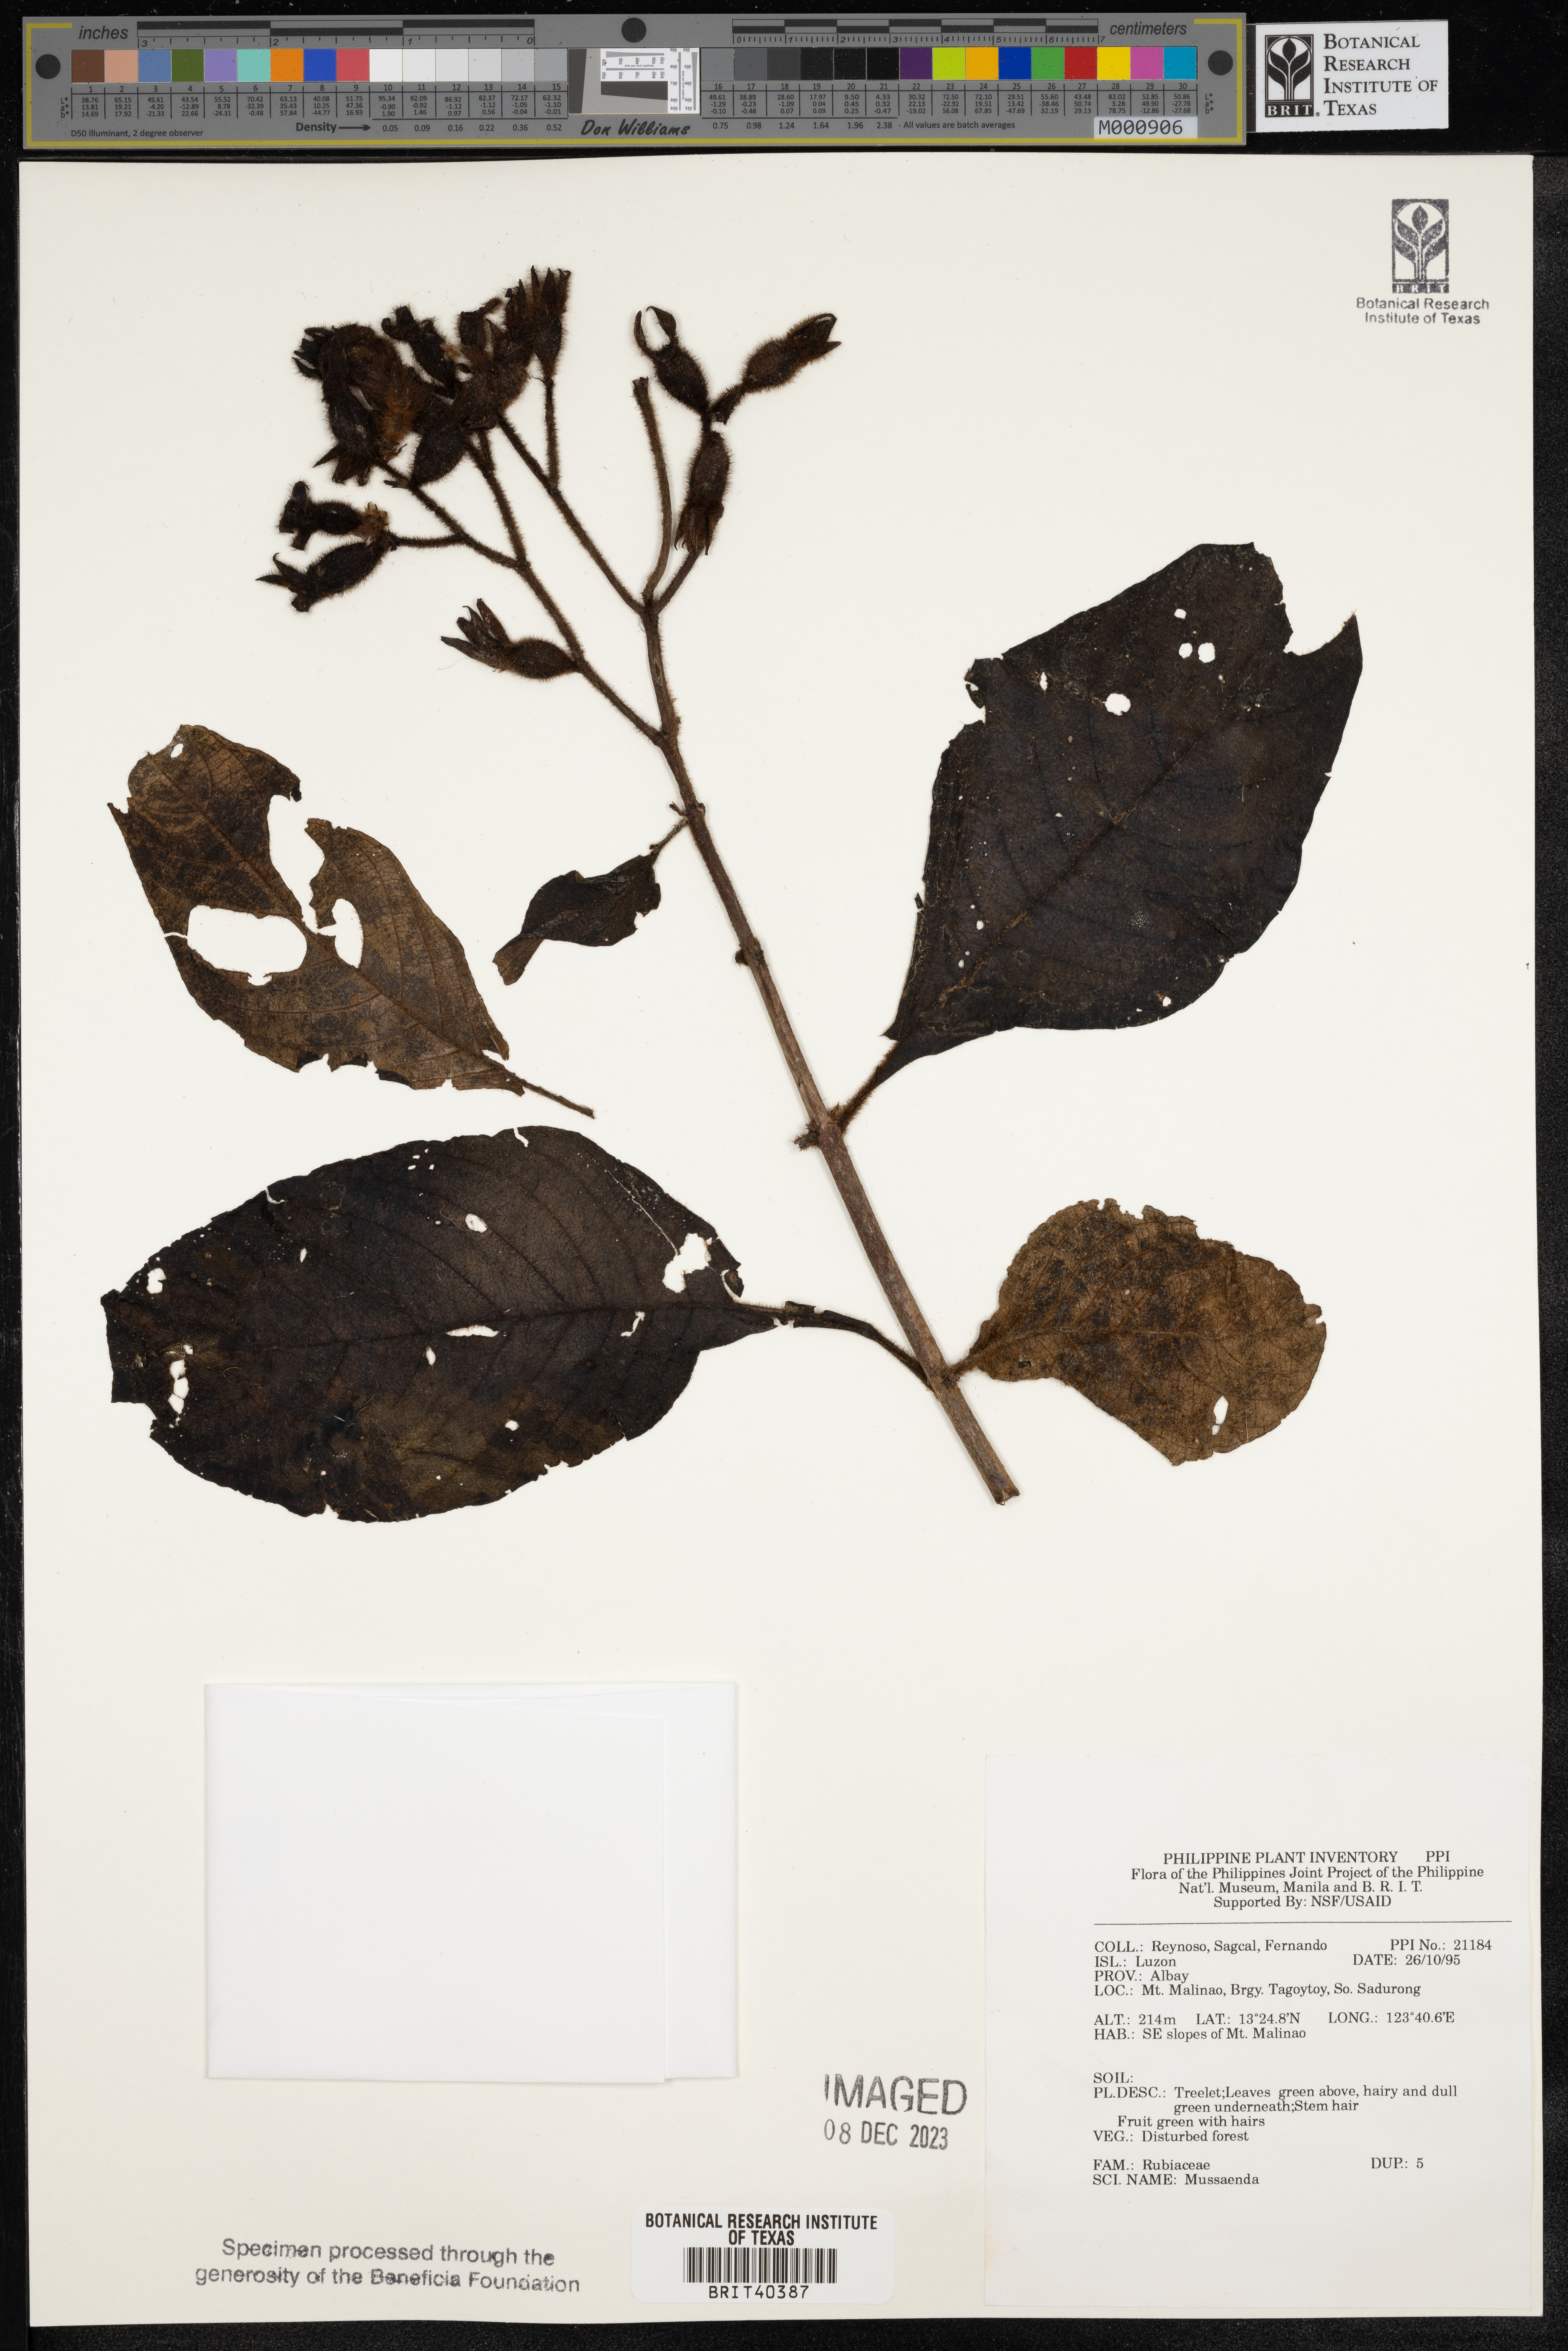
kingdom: Plantae
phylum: Tracheophyta
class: Magnoliopsida
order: Gentianales
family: Rubiaceae
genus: Mussaenda
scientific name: Mussaenda
